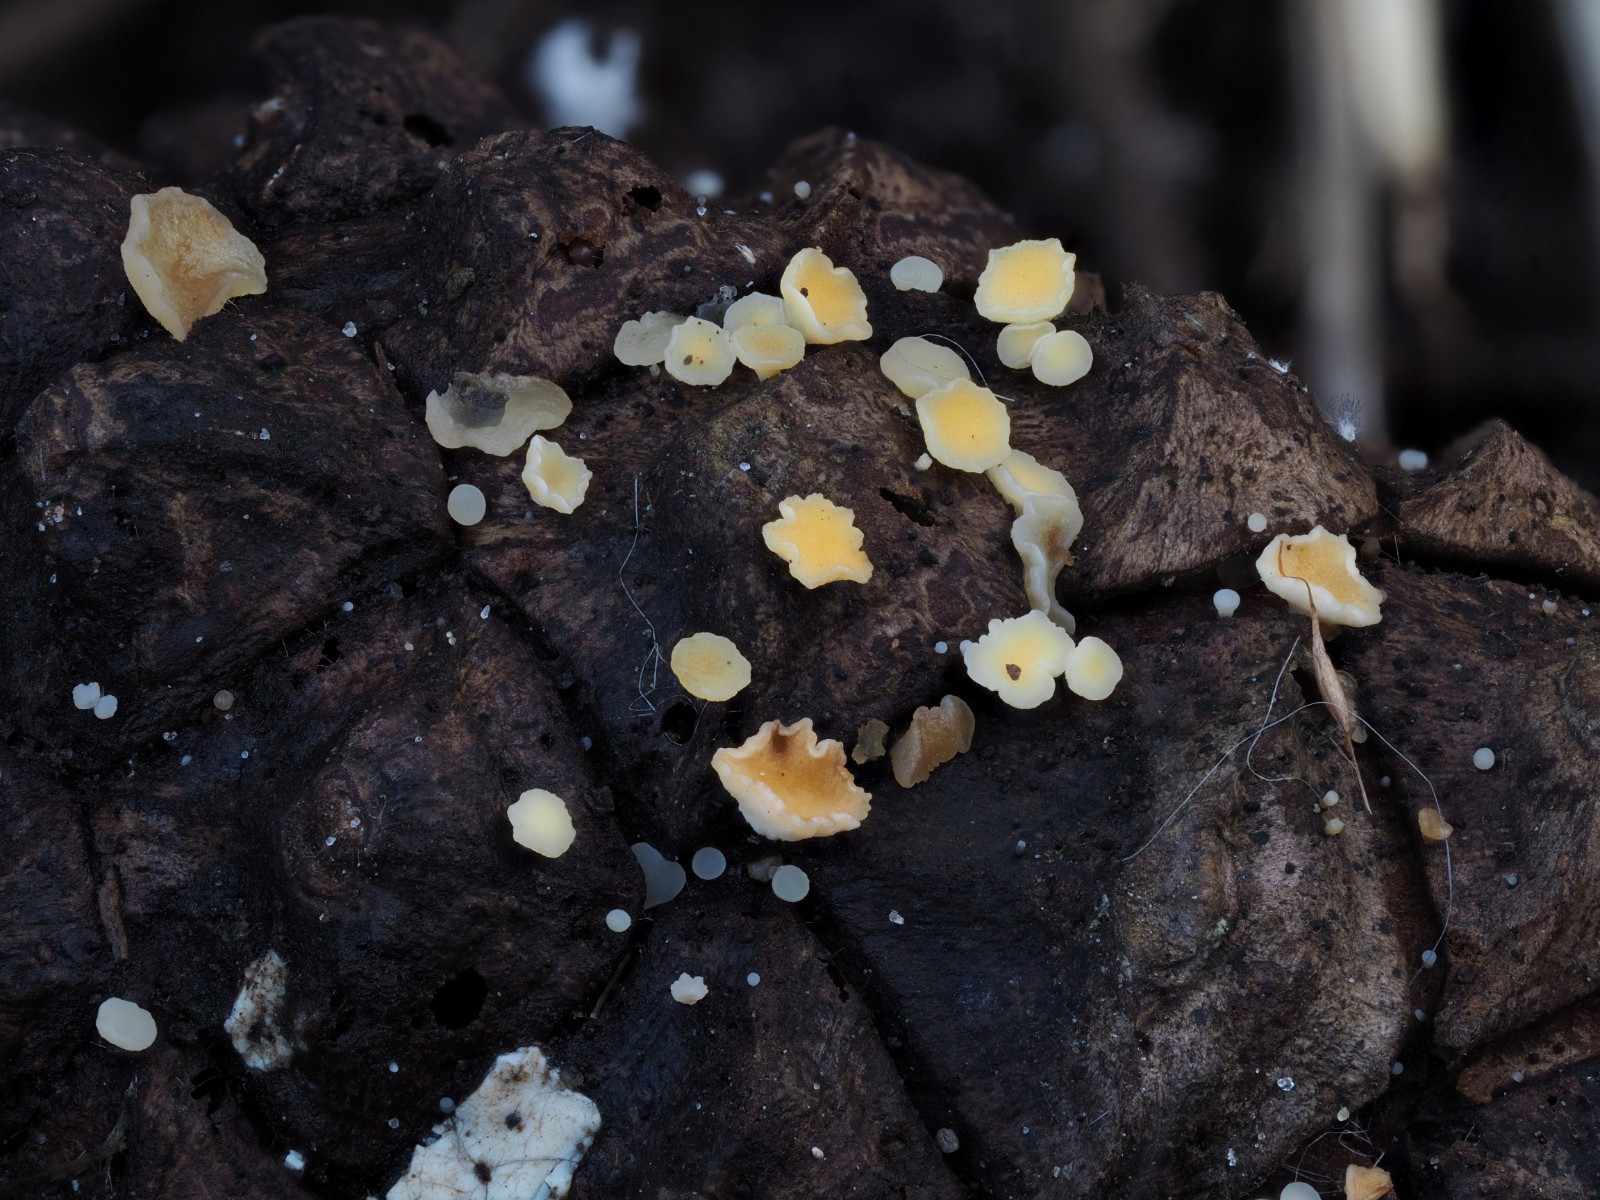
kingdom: Fungi
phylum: Ascomycota
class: Leotiomycetes
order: Helotiales
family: Helotiaceae
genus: Hymenoscyphus
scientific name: Hymenoscyphus lutescens
